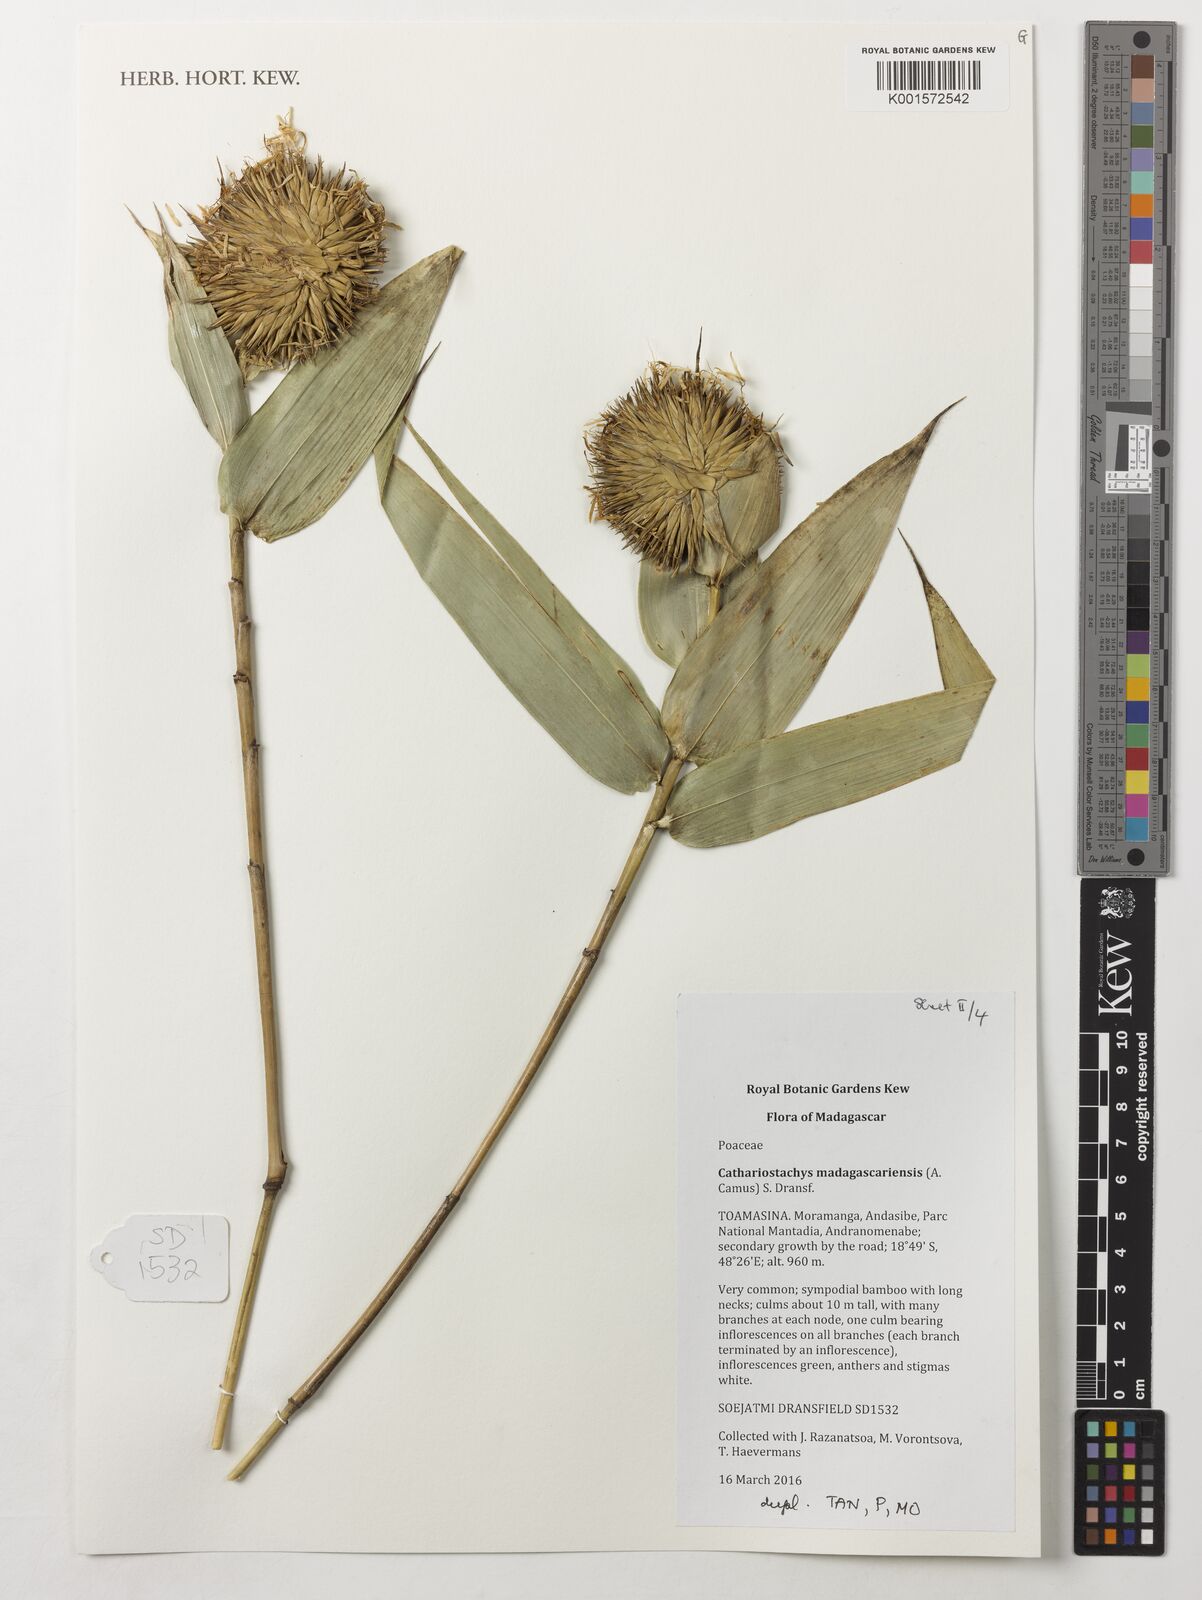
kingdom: Plantae
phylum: Tracheophyta
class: Liliopsida
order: Poales
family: Poaceae
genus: Cathariostachys
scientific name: Cathariostachys madagascariensis
